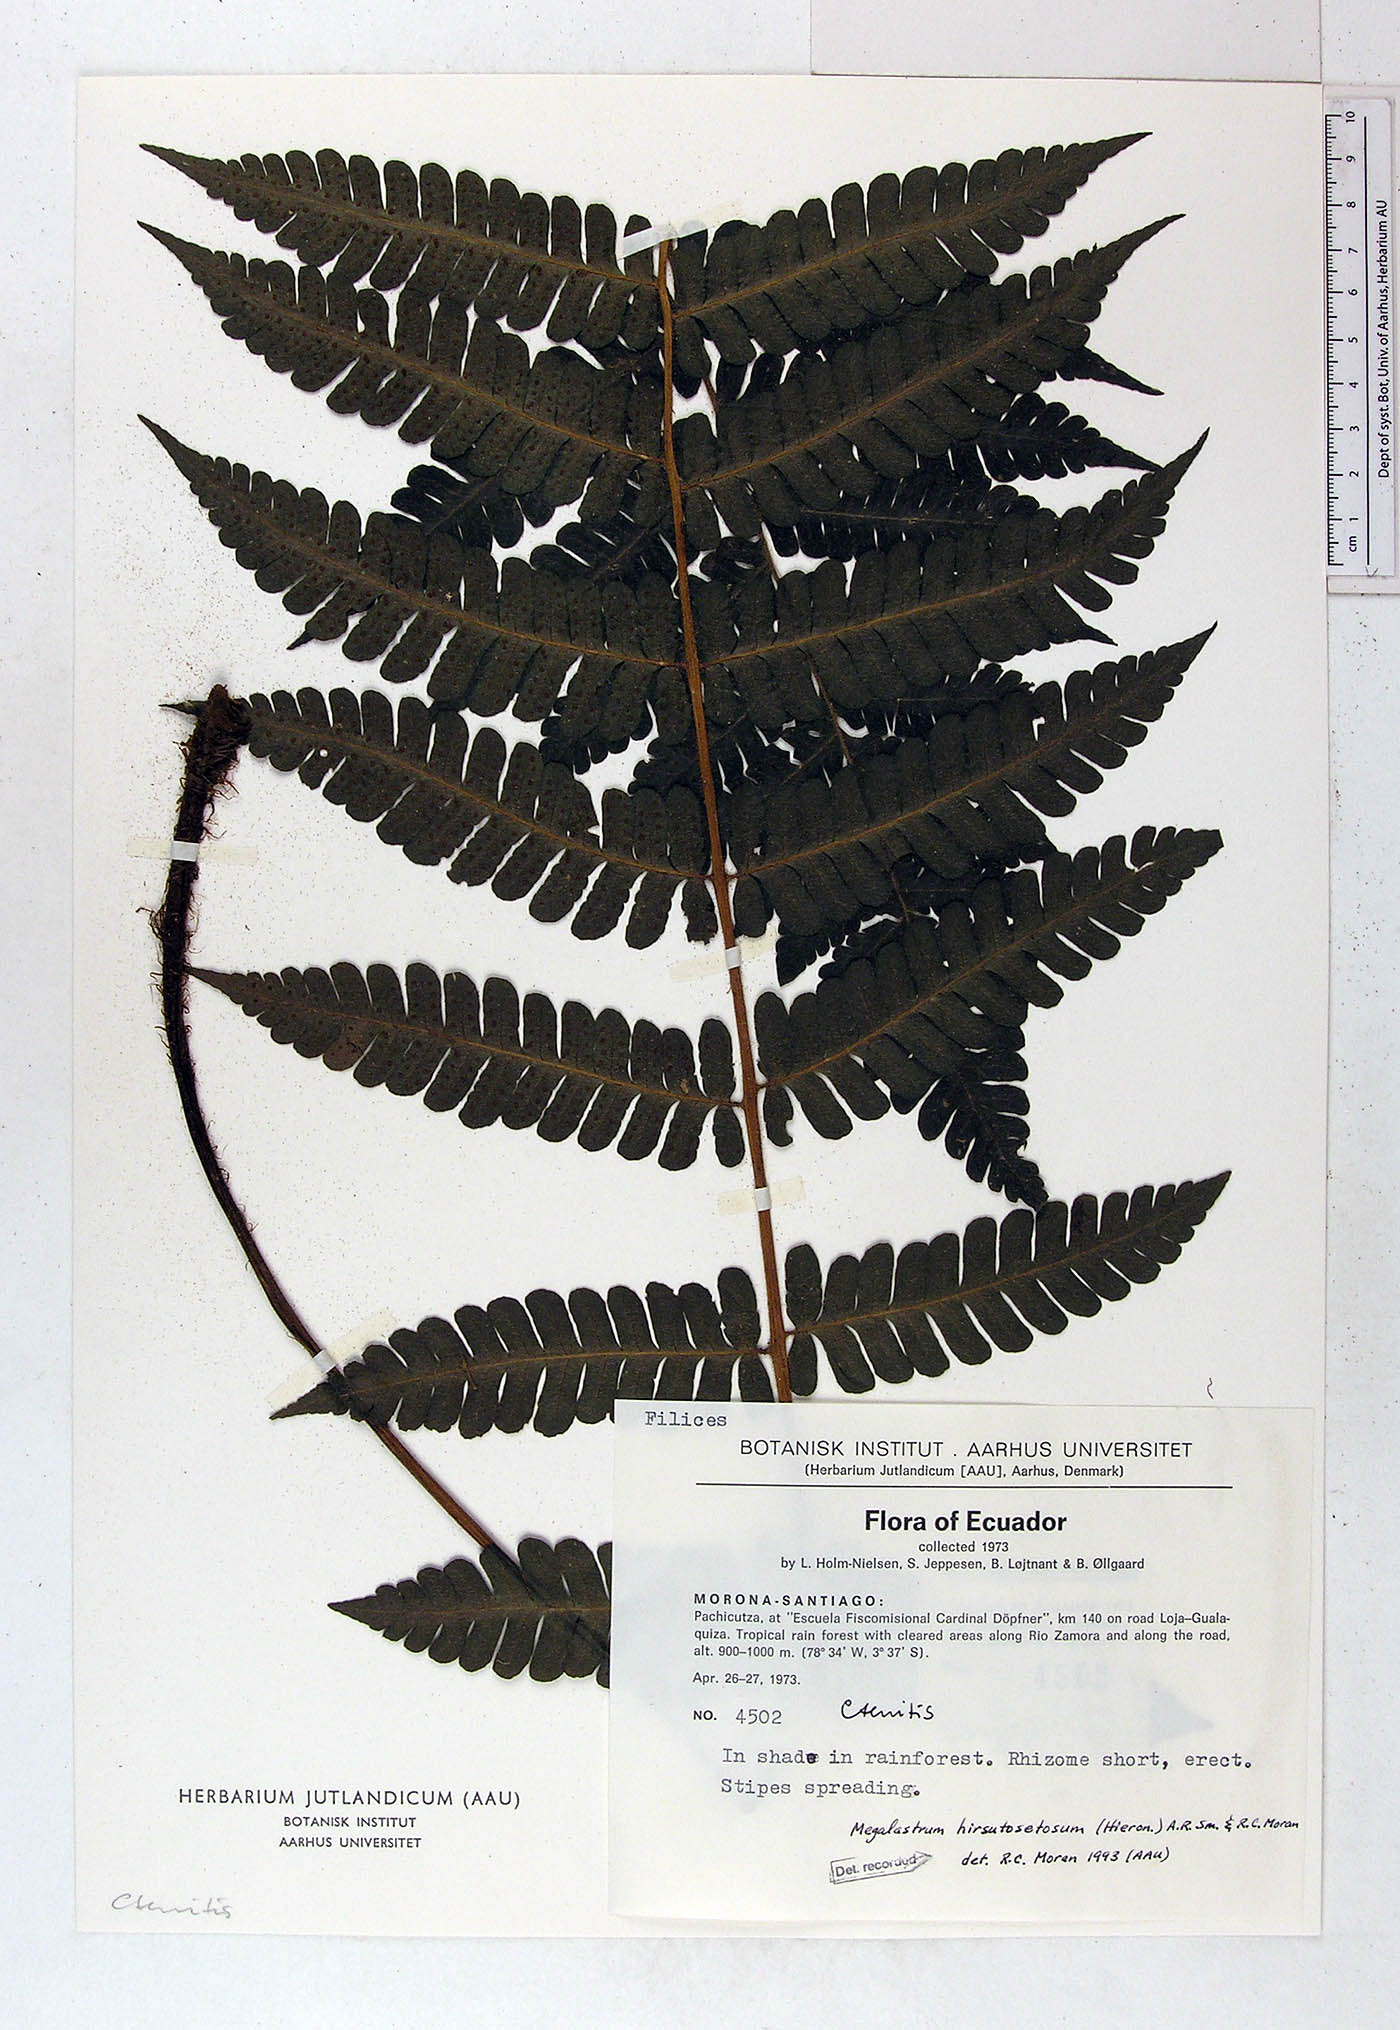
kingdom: Plantae
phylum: Tracheophyta
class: Polypodiopsida
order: Polypodiales
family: Dryopteridaceae
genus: Megalastrum
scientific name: Megalastrum hirsutosetosum
